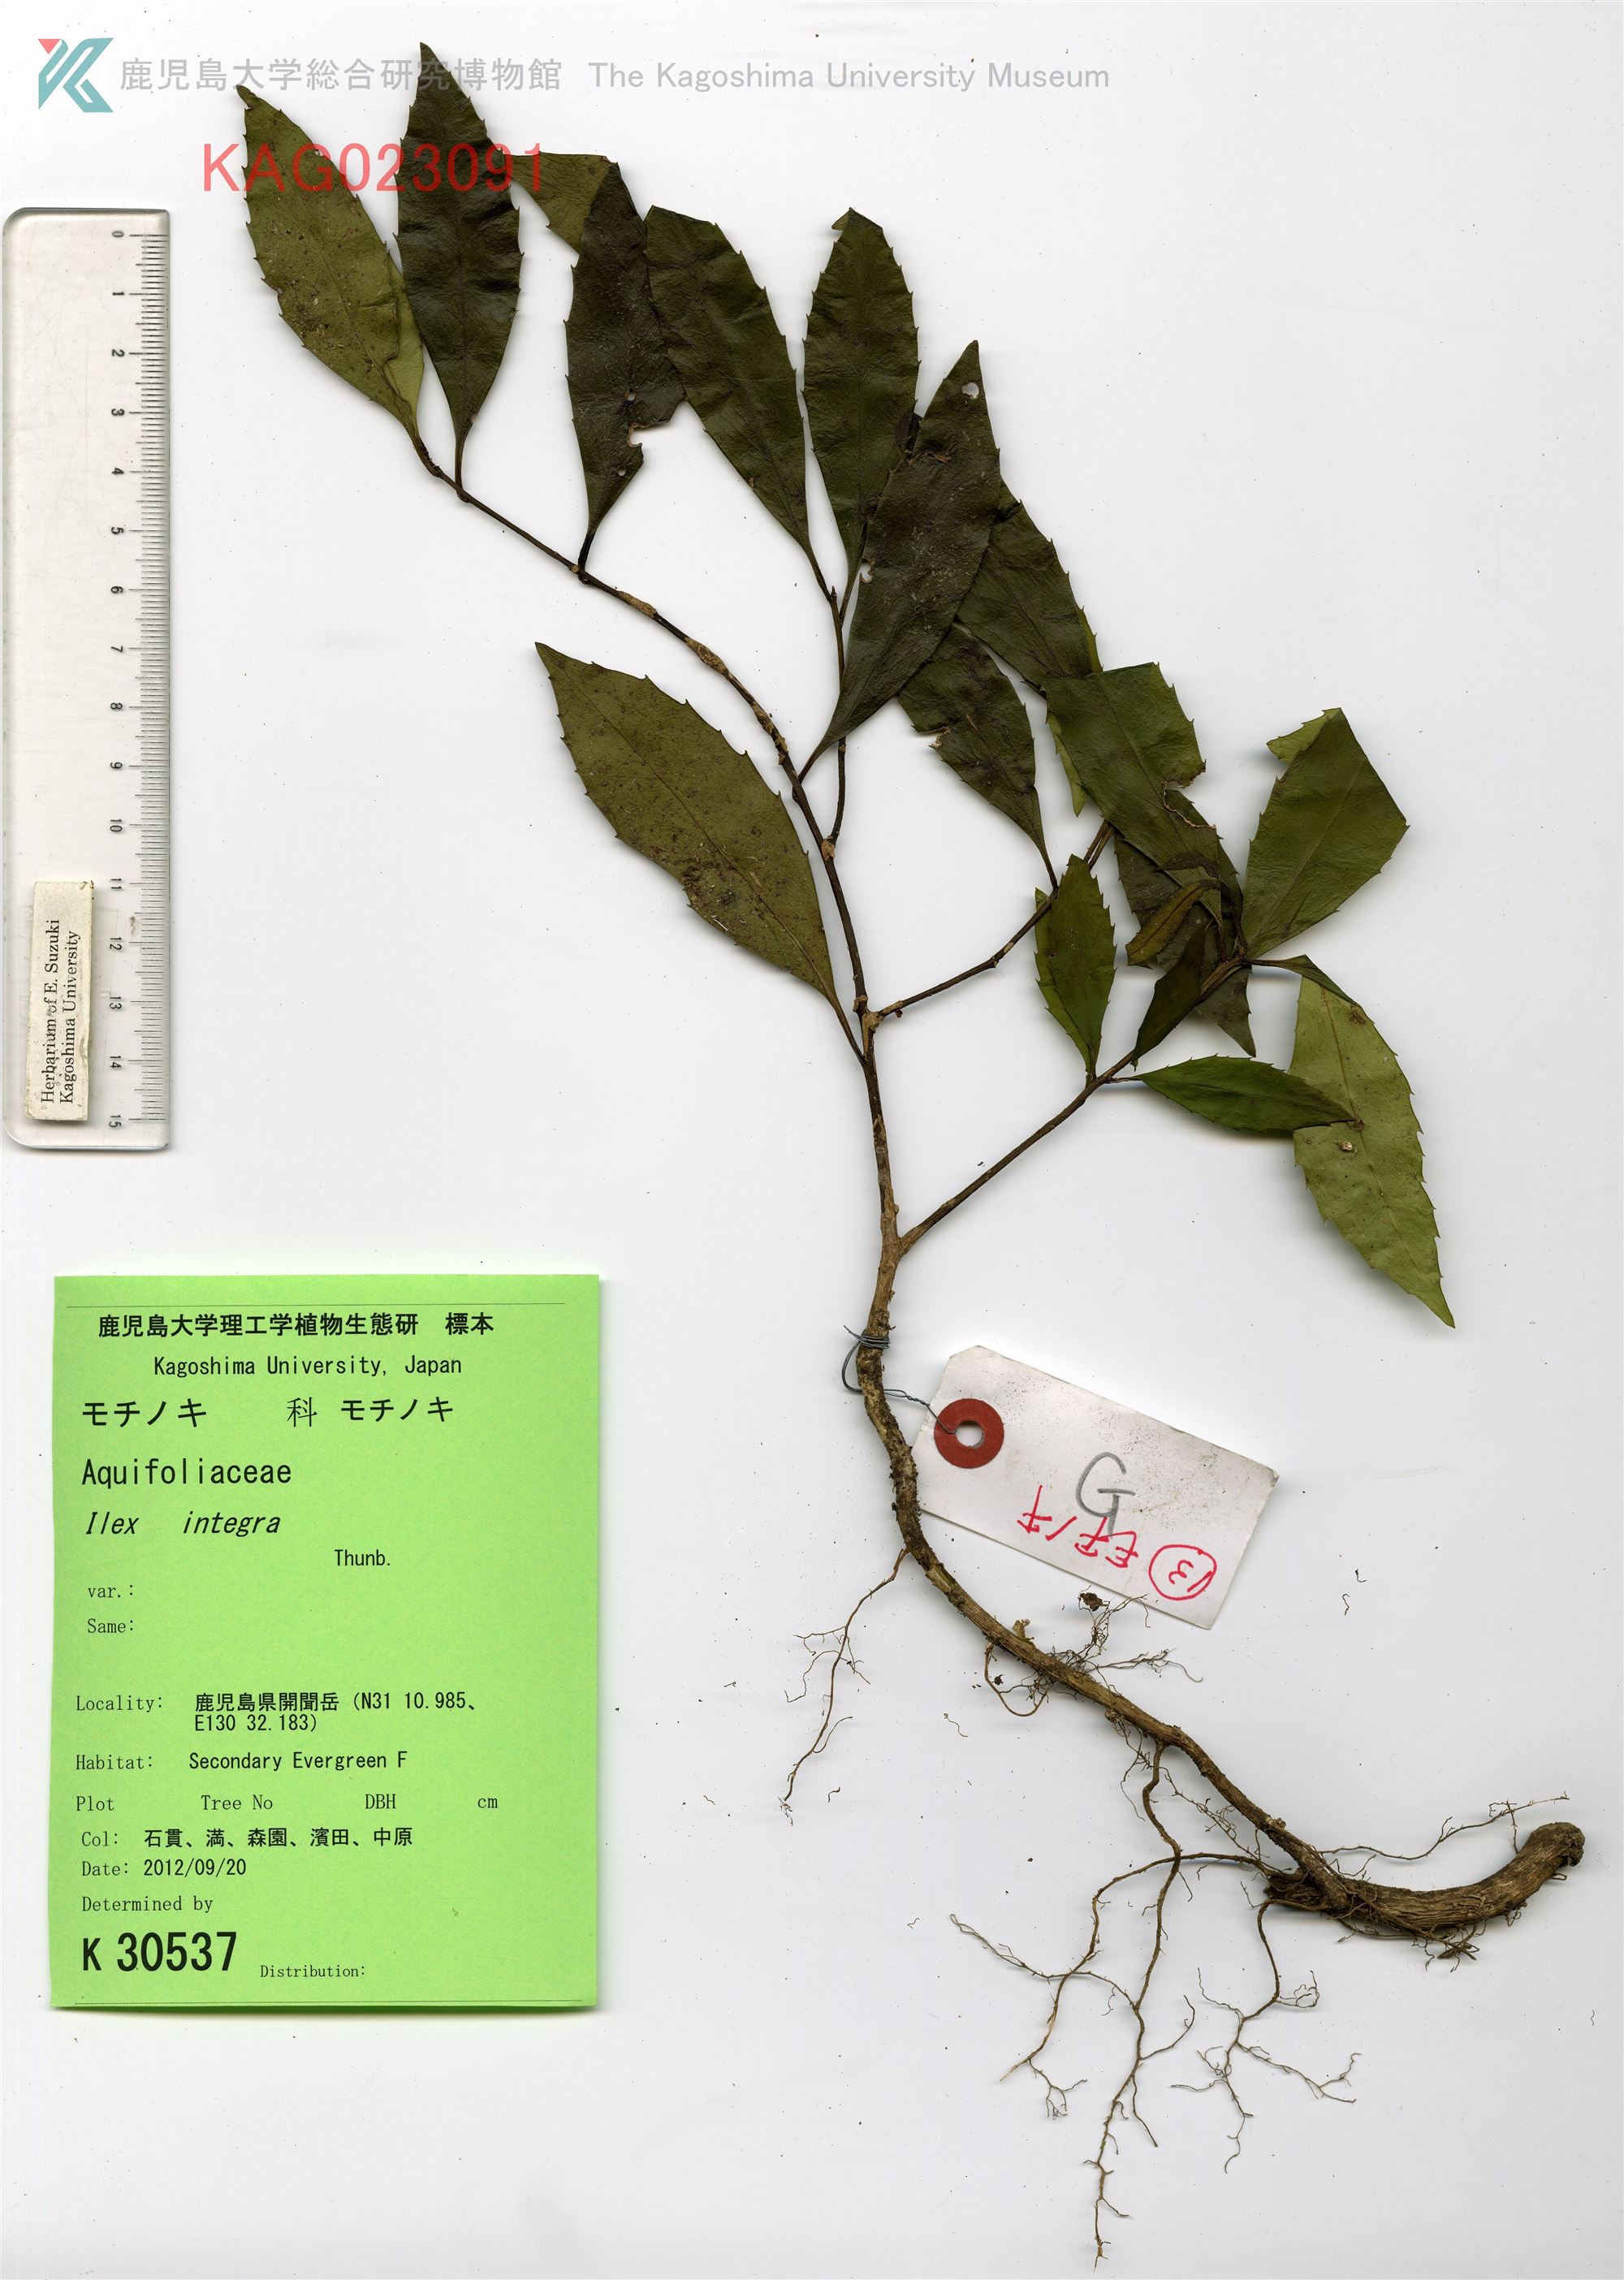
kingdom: Plantae
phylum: Tracheophyta
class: Magnoliopsida
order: Aquifoliales
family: Aquifoliaceae
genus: Ilex
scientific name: Ilex integra
